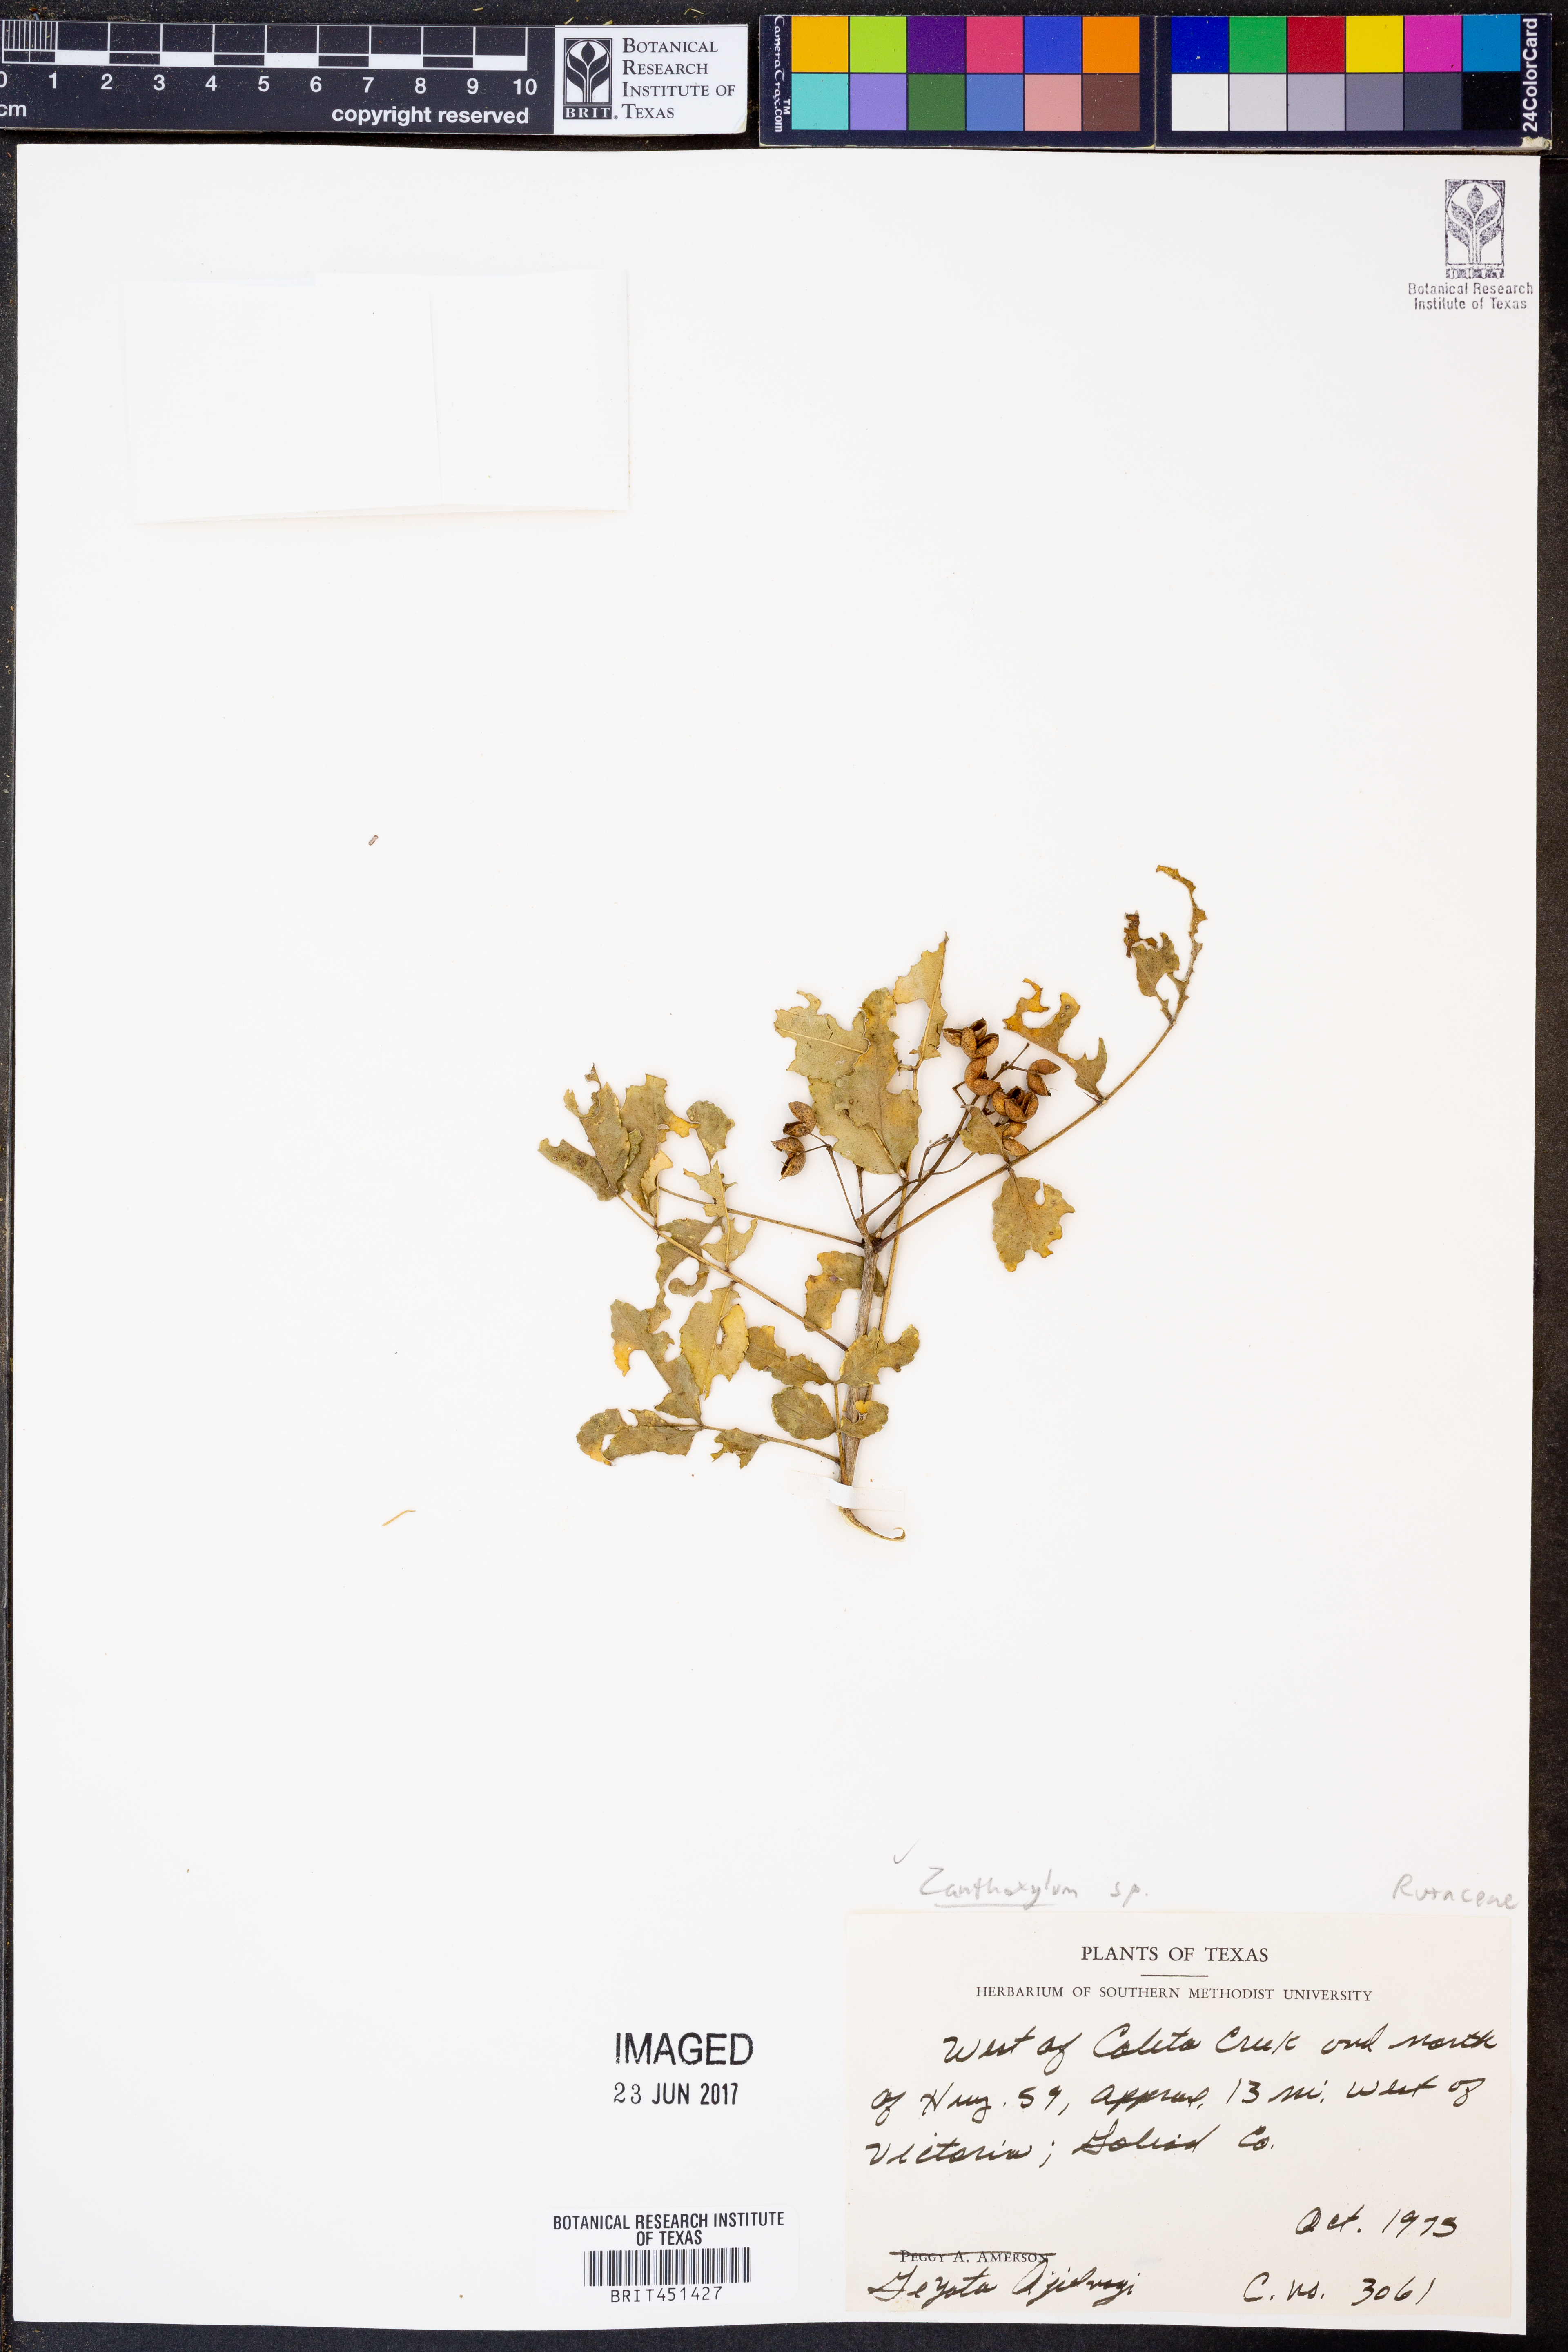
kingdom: Plantae
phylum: Tracheophyta
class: Magnoliopsida
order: Sapindales
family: Rutaceae
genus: Zanthoxylum
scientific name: Zanthoxylum
